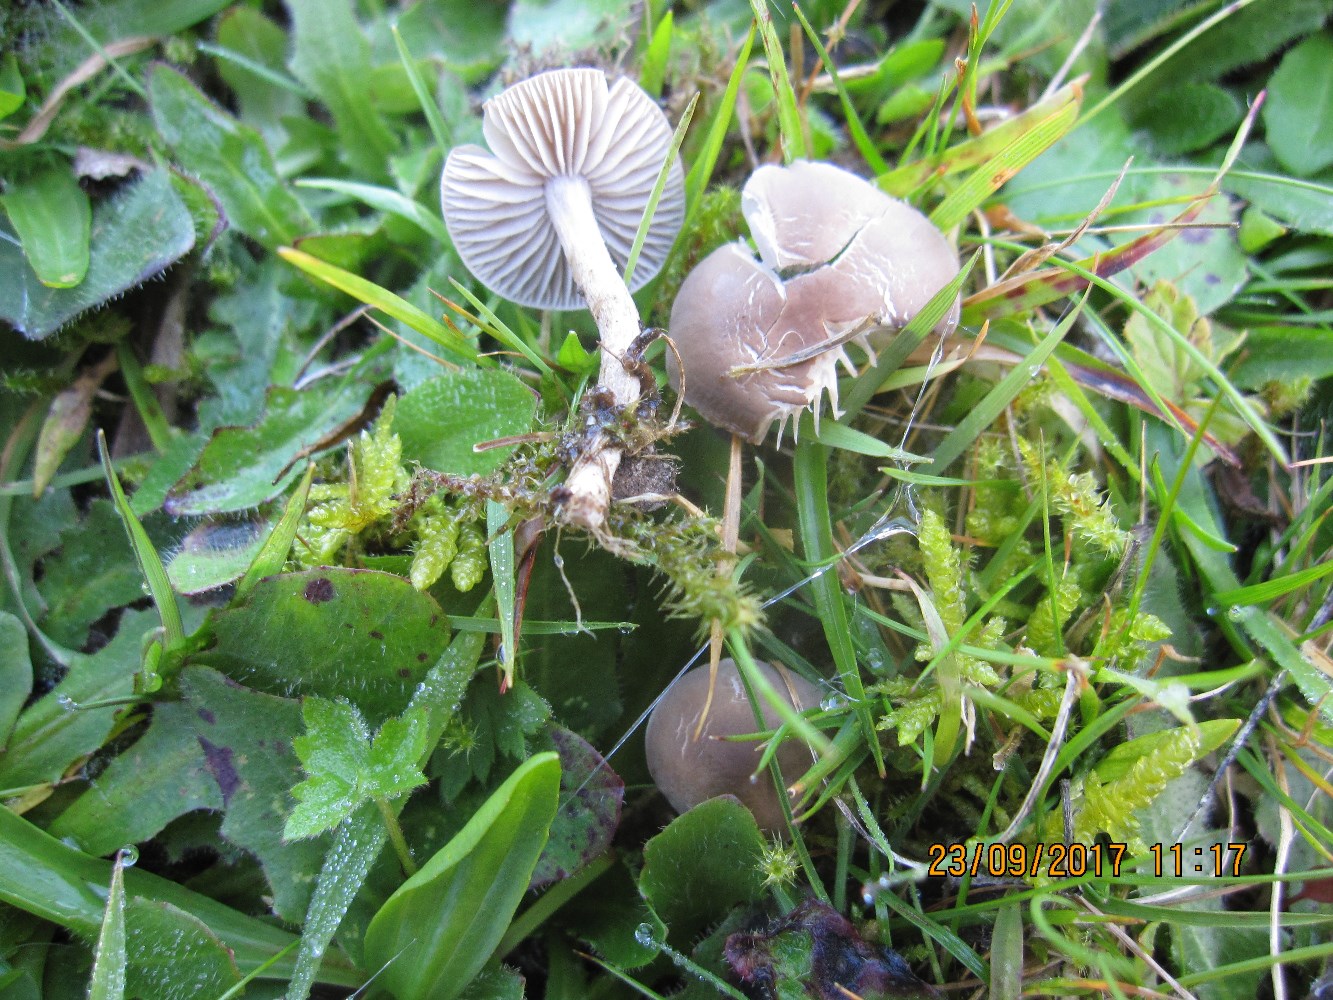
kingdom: Fungi
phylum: Basidiomycota
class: Agaricomycetes
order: Agaricales
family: Tricholomataceae
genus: Dermoloma
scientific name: Dermoloma cuneifolium
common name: eng-nonnehat
